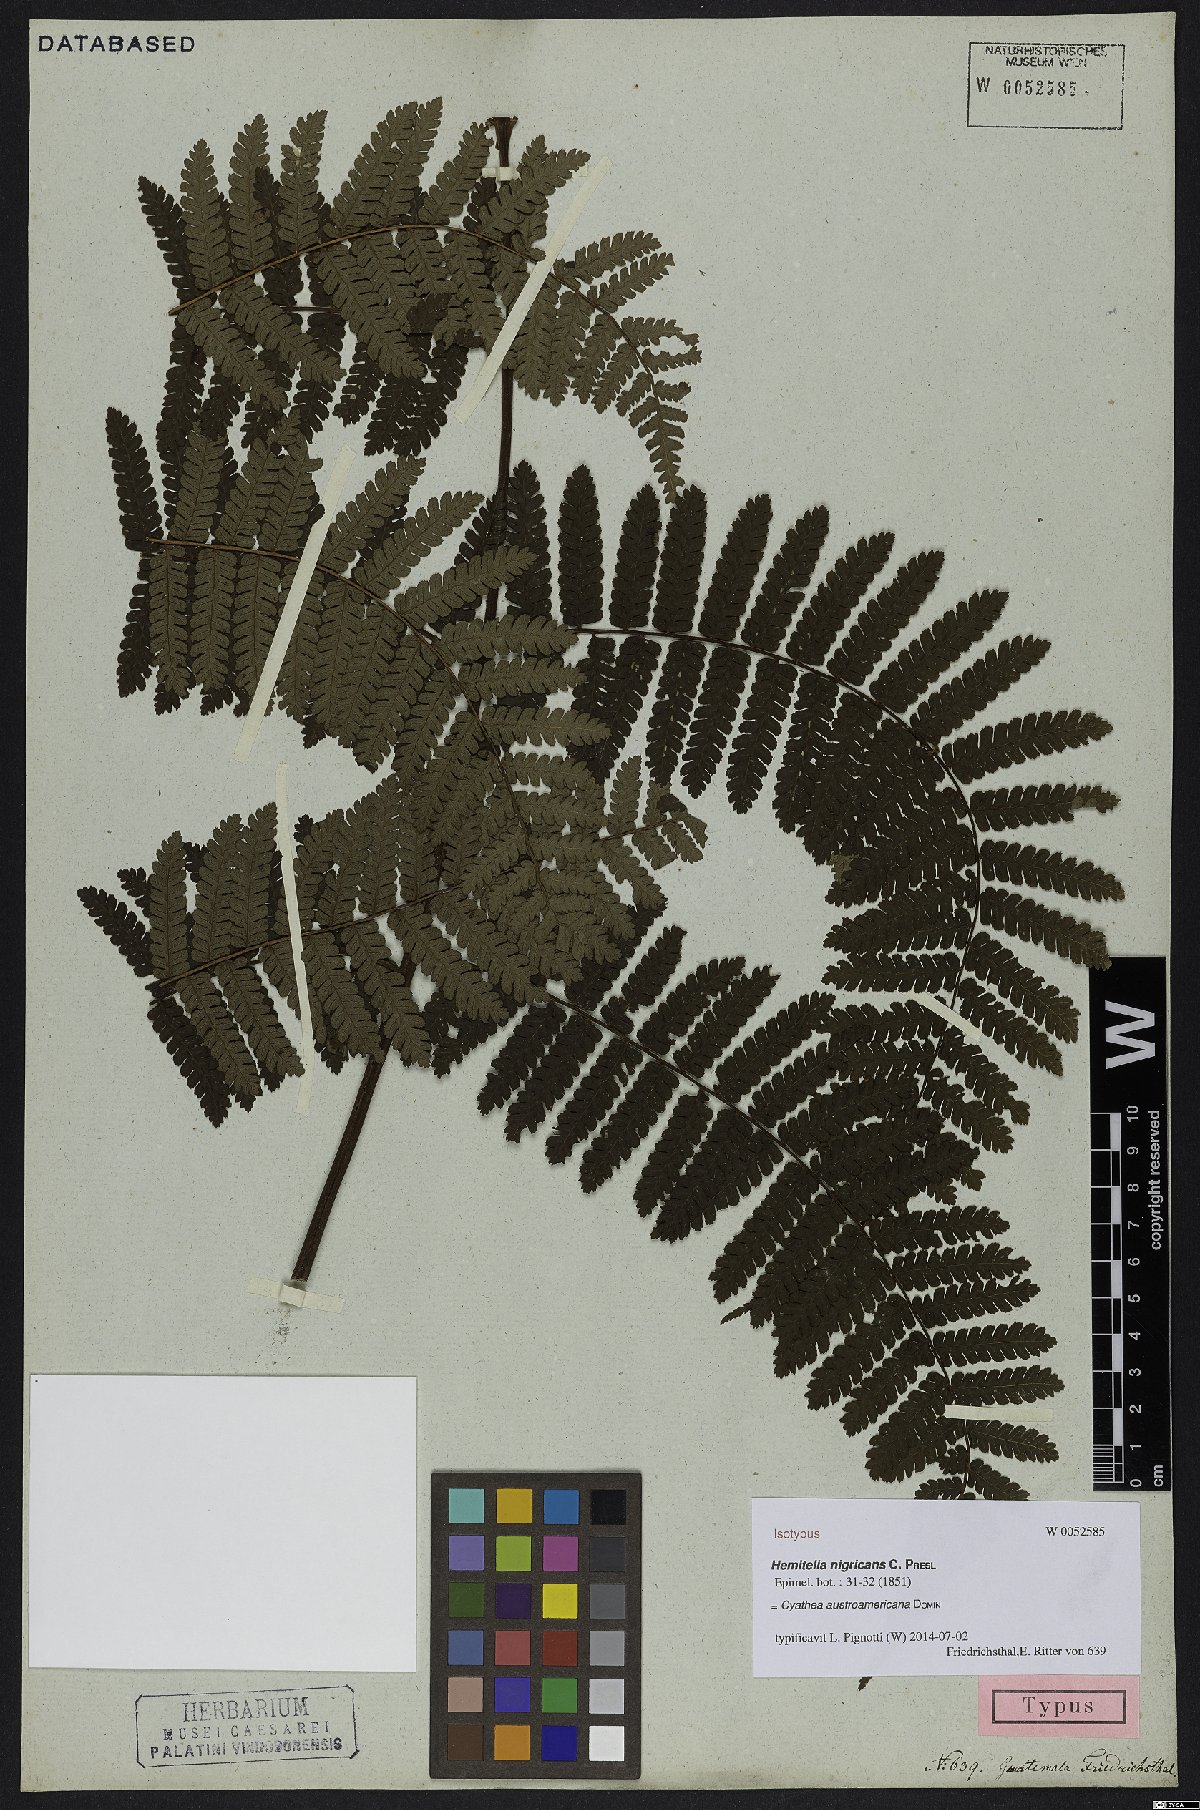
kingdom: Plantae
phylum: Tracheophyta
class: Polypodiopsida
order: Cyatheales
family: Cyatheaceae
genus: Cyathea
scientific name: Cyathea austroamericana
